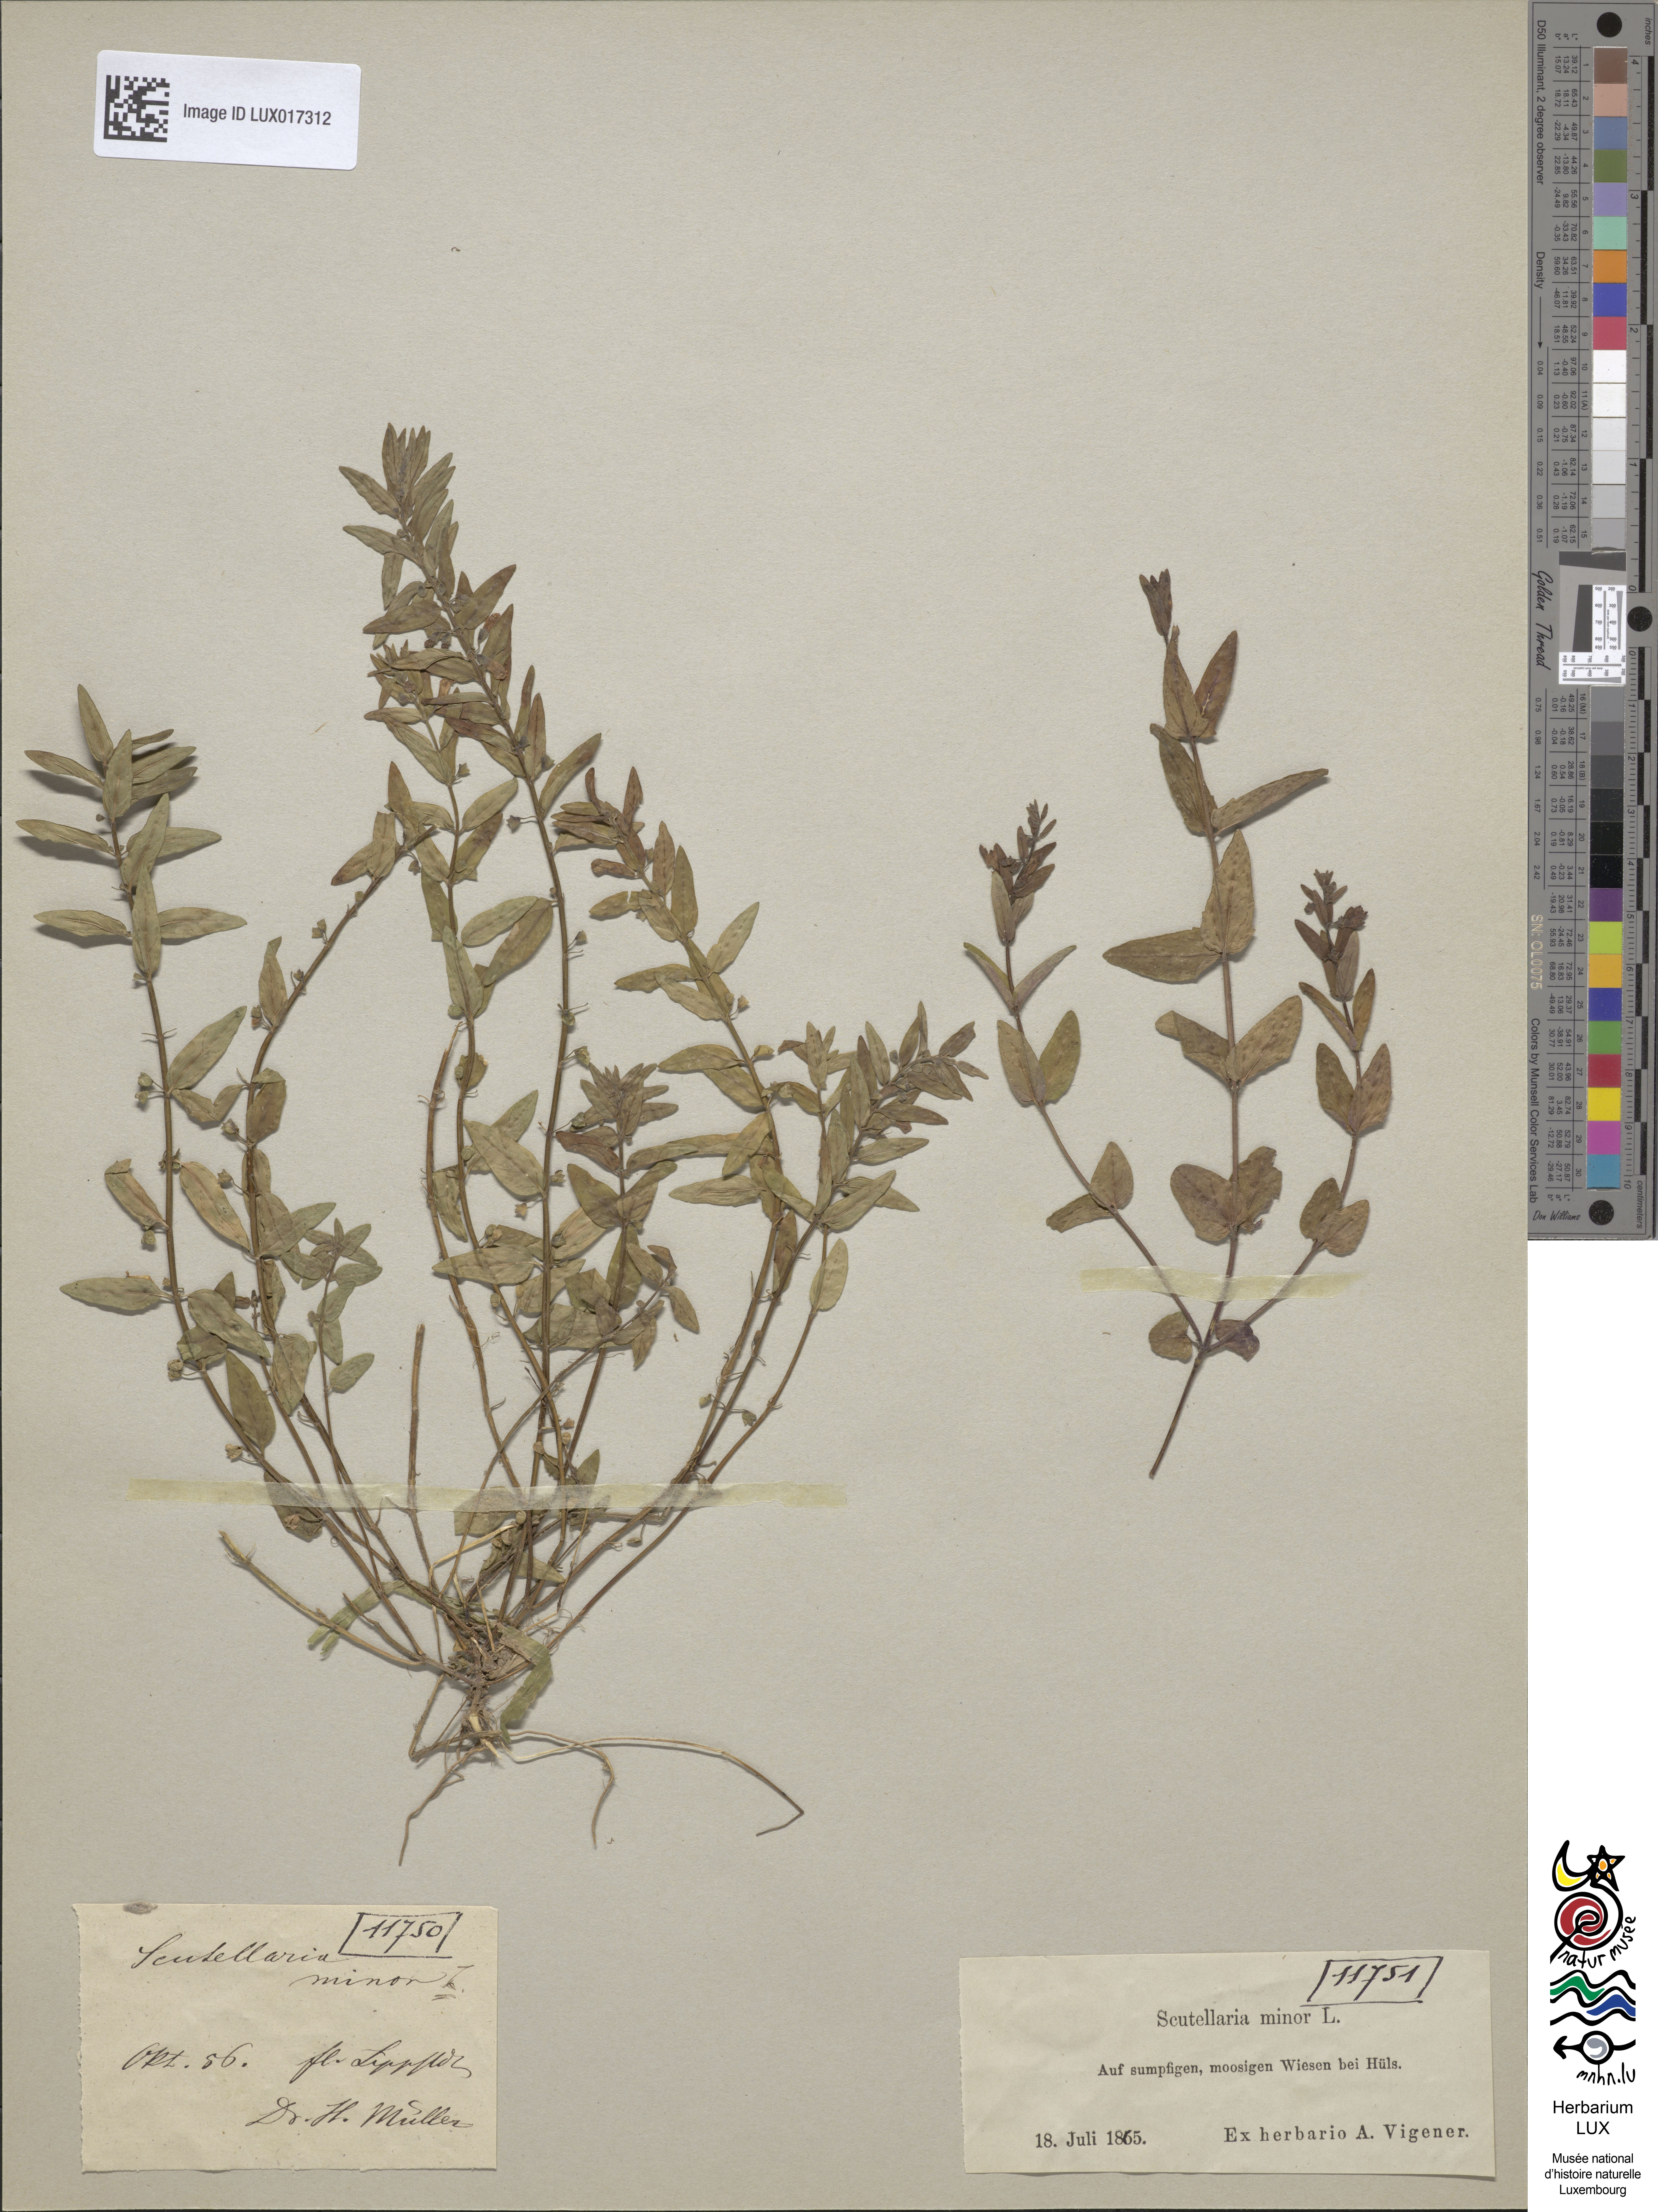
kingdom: Plantae
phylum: Tracheophyta
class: Magnoliopsida
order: Lamiales
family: Lamiaceae
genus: Scutellaria
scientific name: Scutellaria minor
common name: Lesser skullcap
